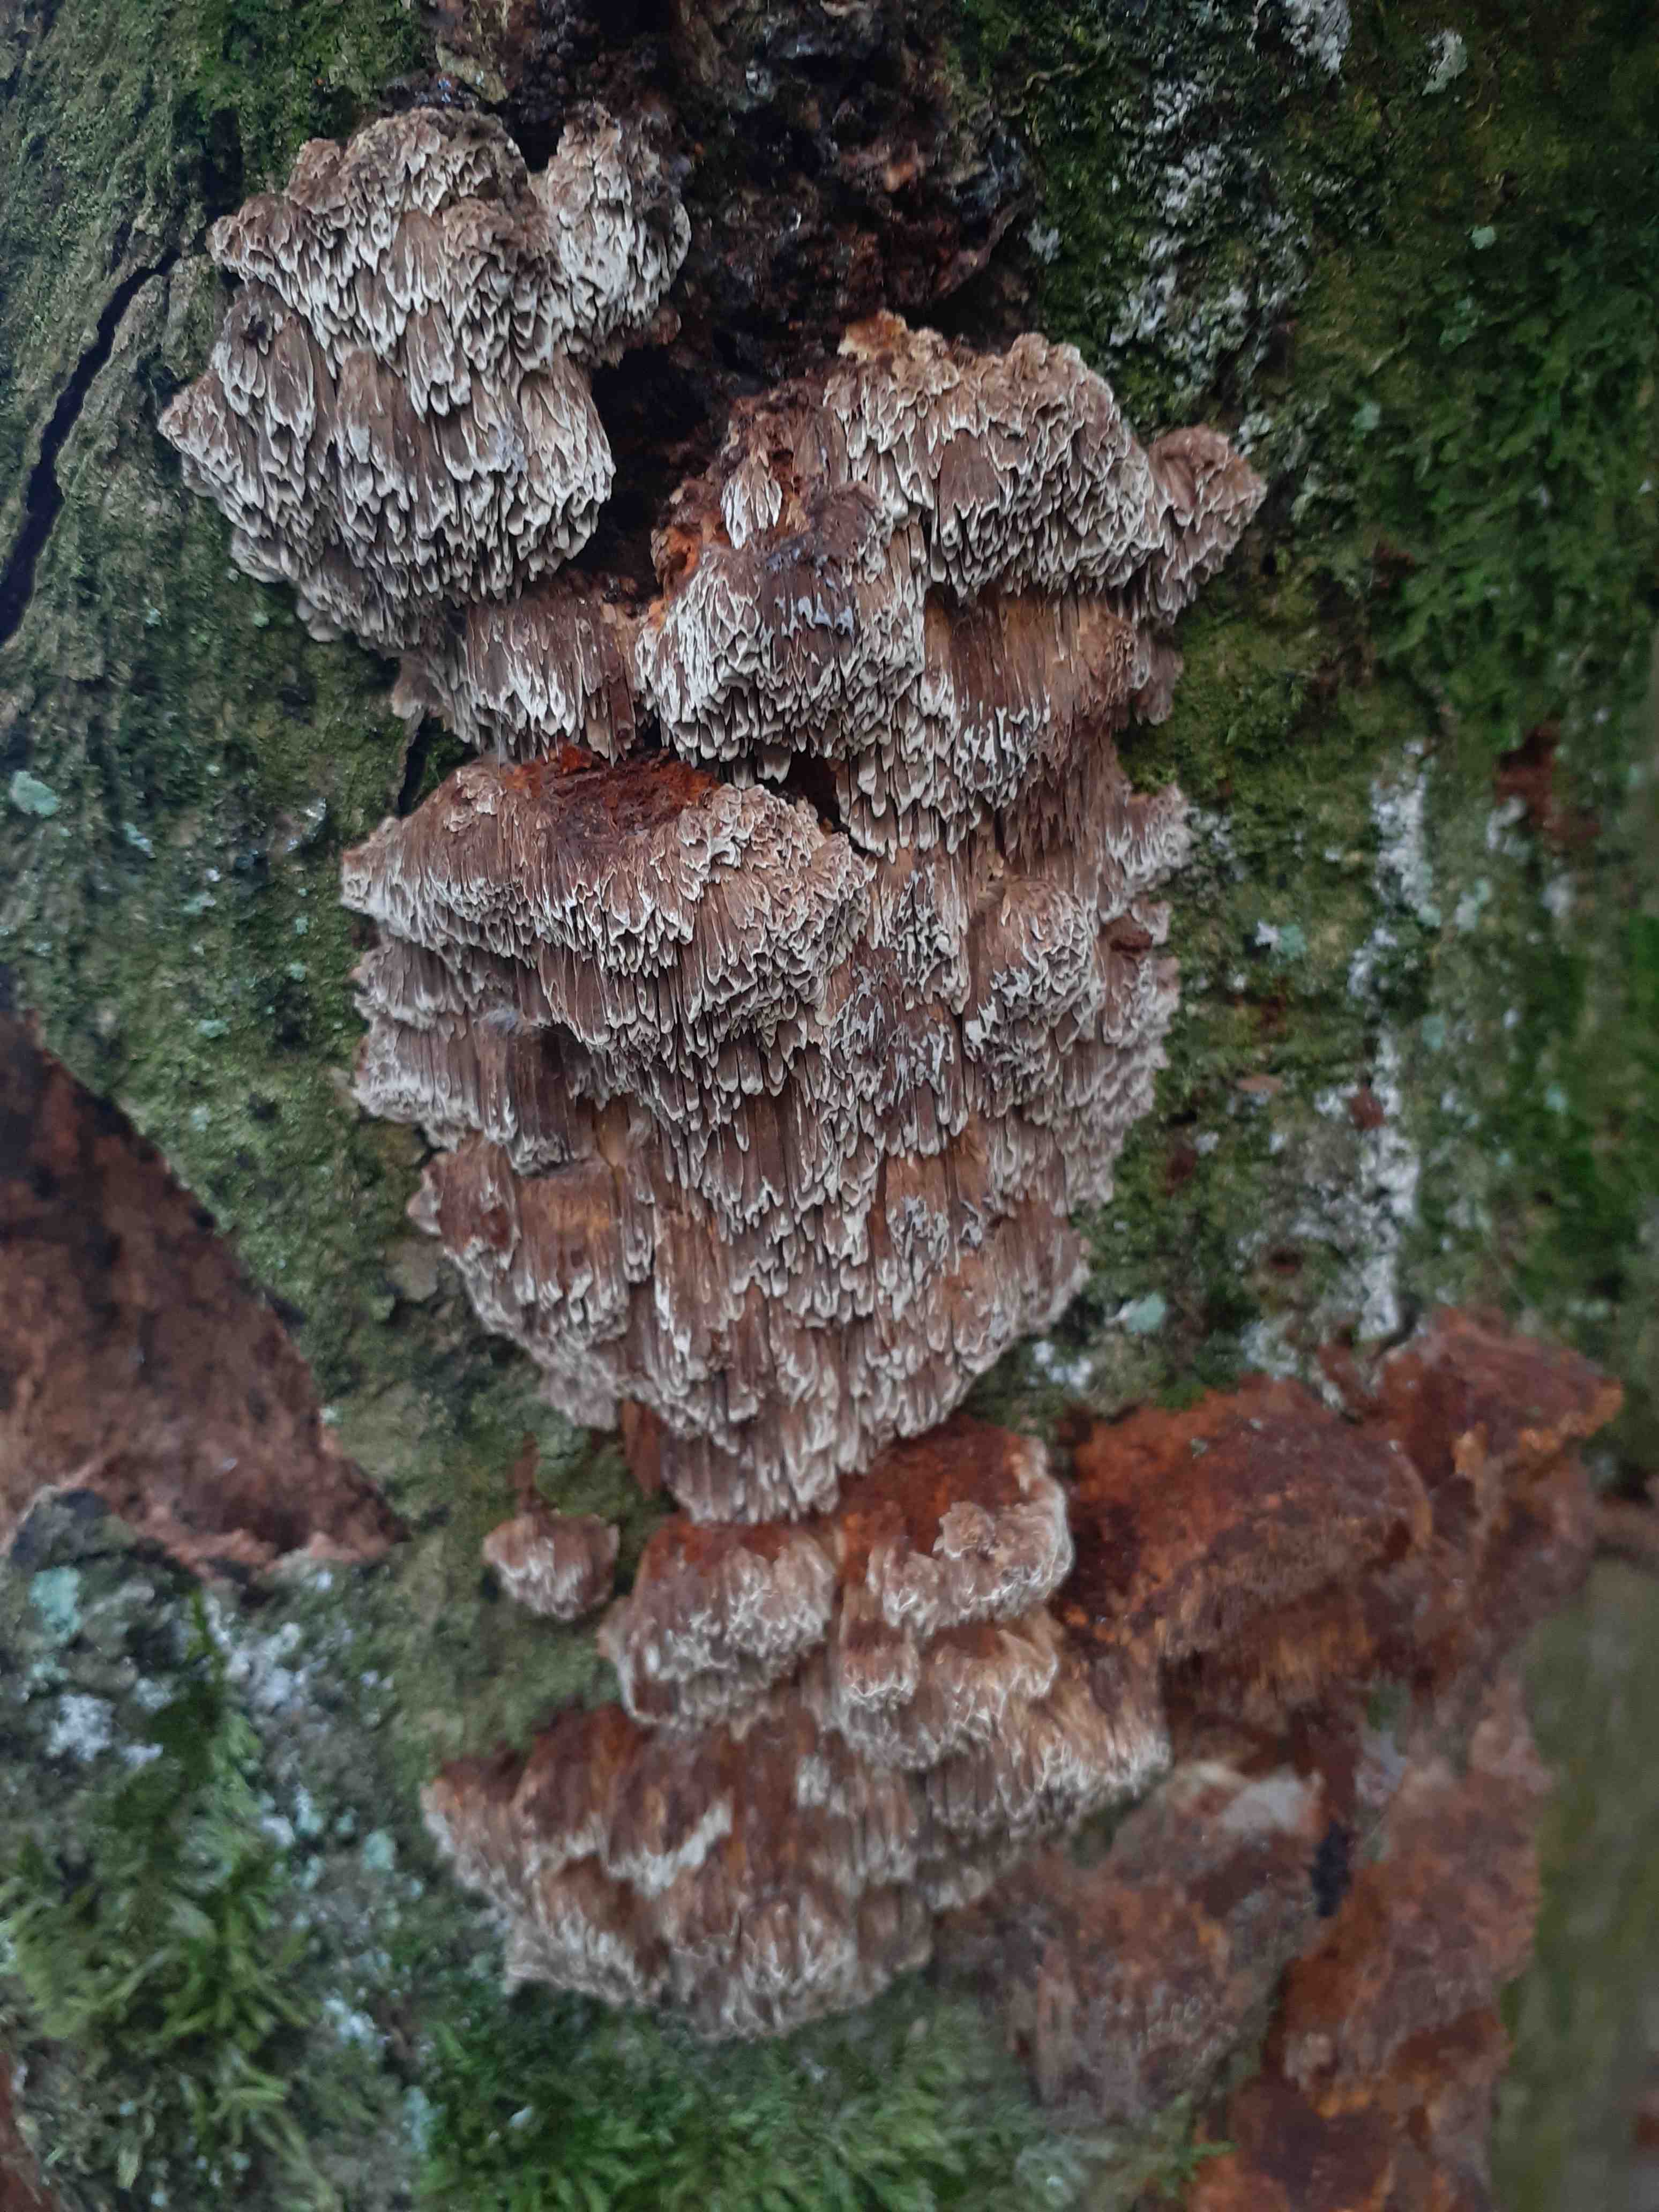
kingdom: Fungi
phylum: Basidiomycota
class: Agaricomycetes
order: Hymenochaetales
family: Hymenochaetaceae
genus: Mensularia
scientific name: Mensularia nodulosa
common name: bøge-spejlporesvamp
